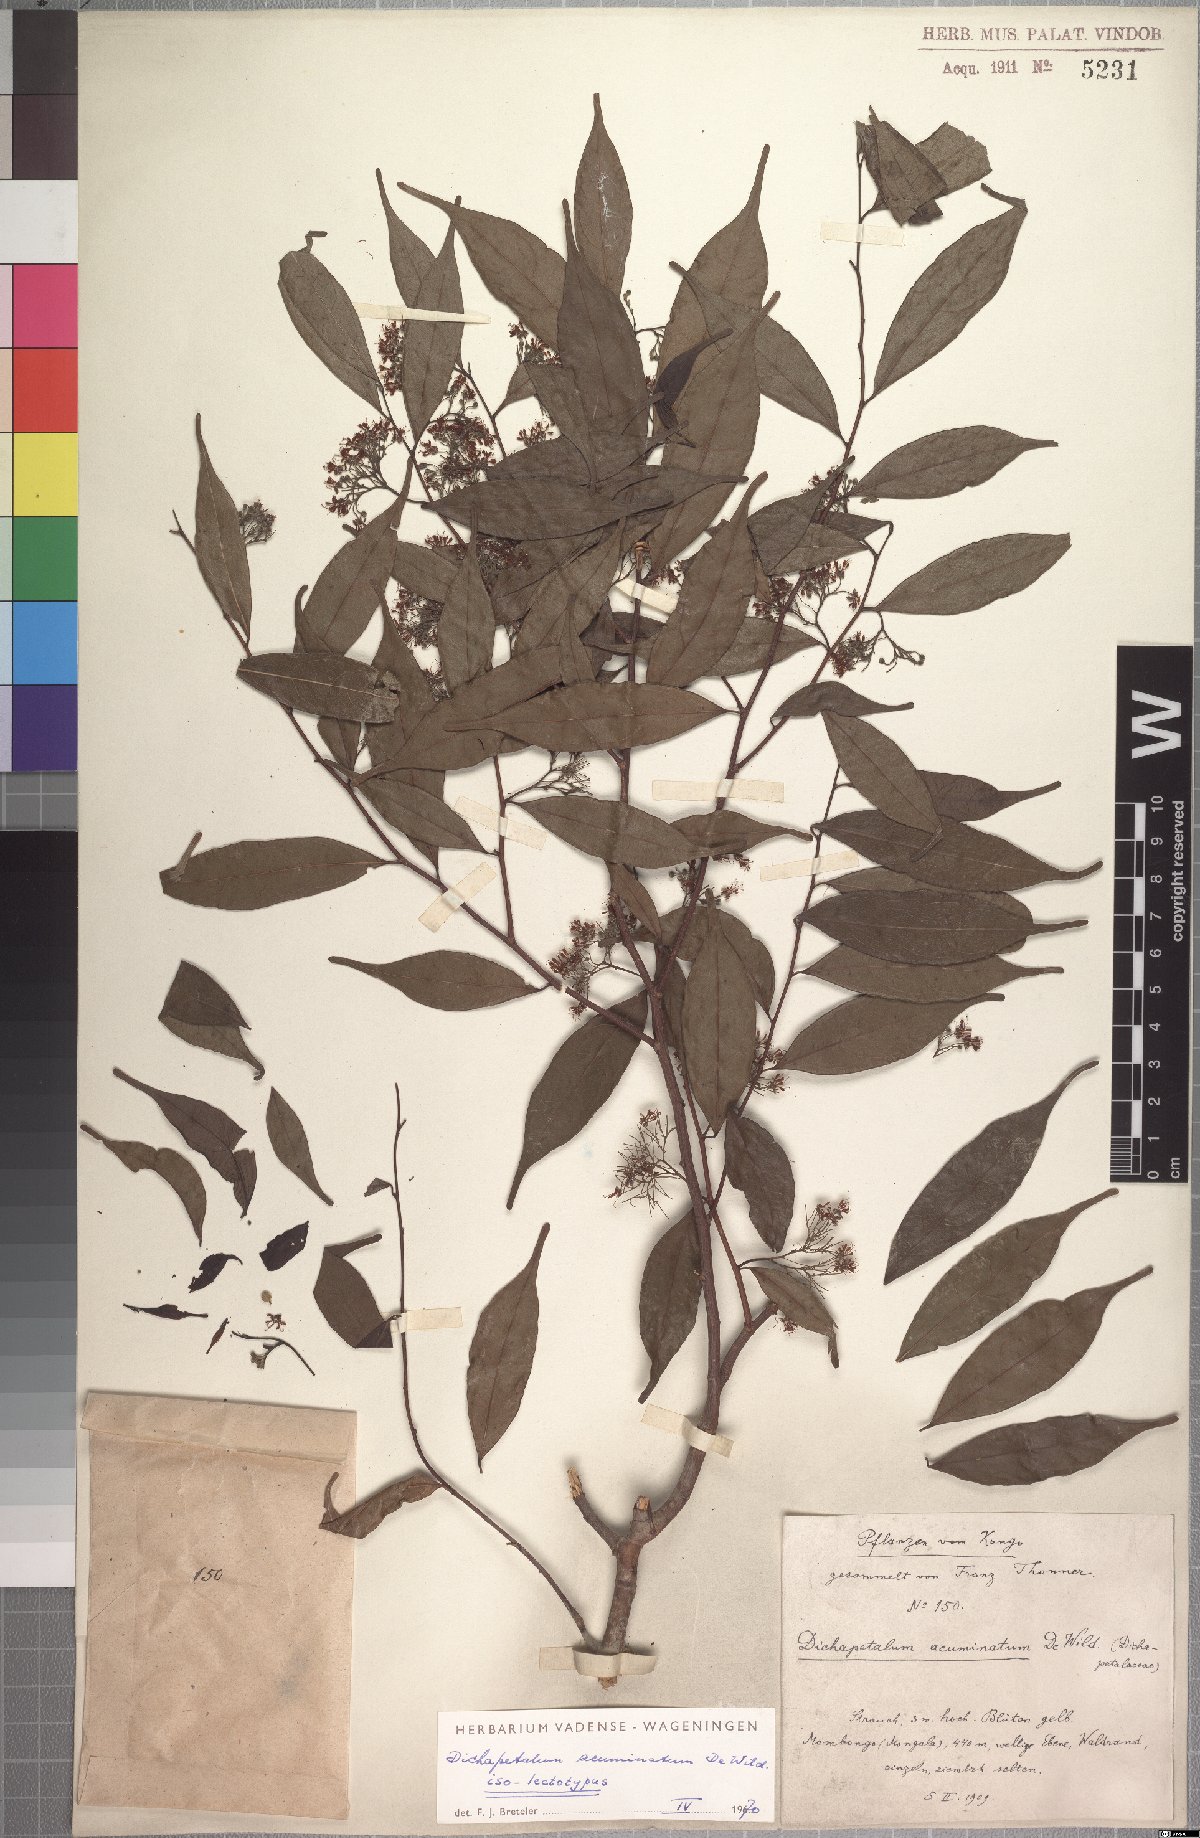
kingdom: Plantae
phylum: Tracheophyta
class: Magnoliopsida
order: Malpighiales
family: Dichapetalaceae
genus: Dichapetalum
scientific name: Dichapetalum acuminatum
